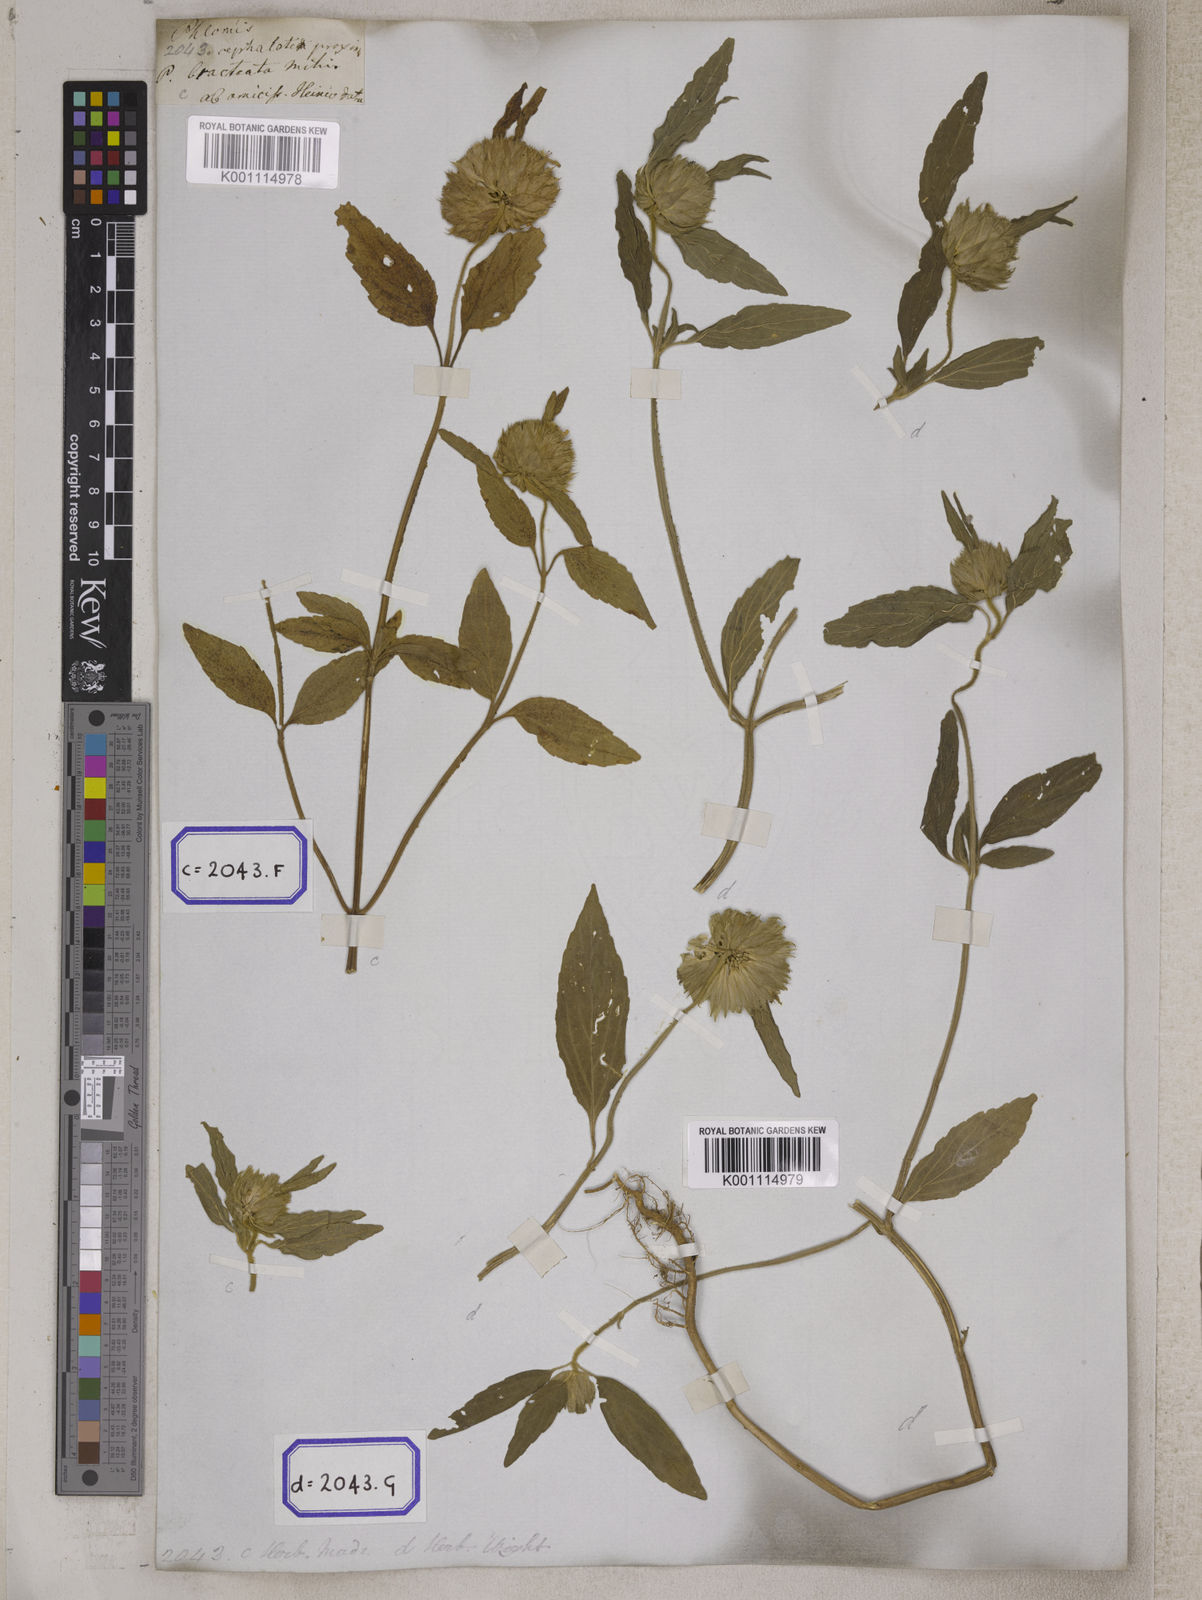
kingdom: Plantae
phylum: Tracheophyta
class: Magnoliopsida
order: Lamiales
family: Lamiaceae
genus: Leucas
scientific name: Leucas
